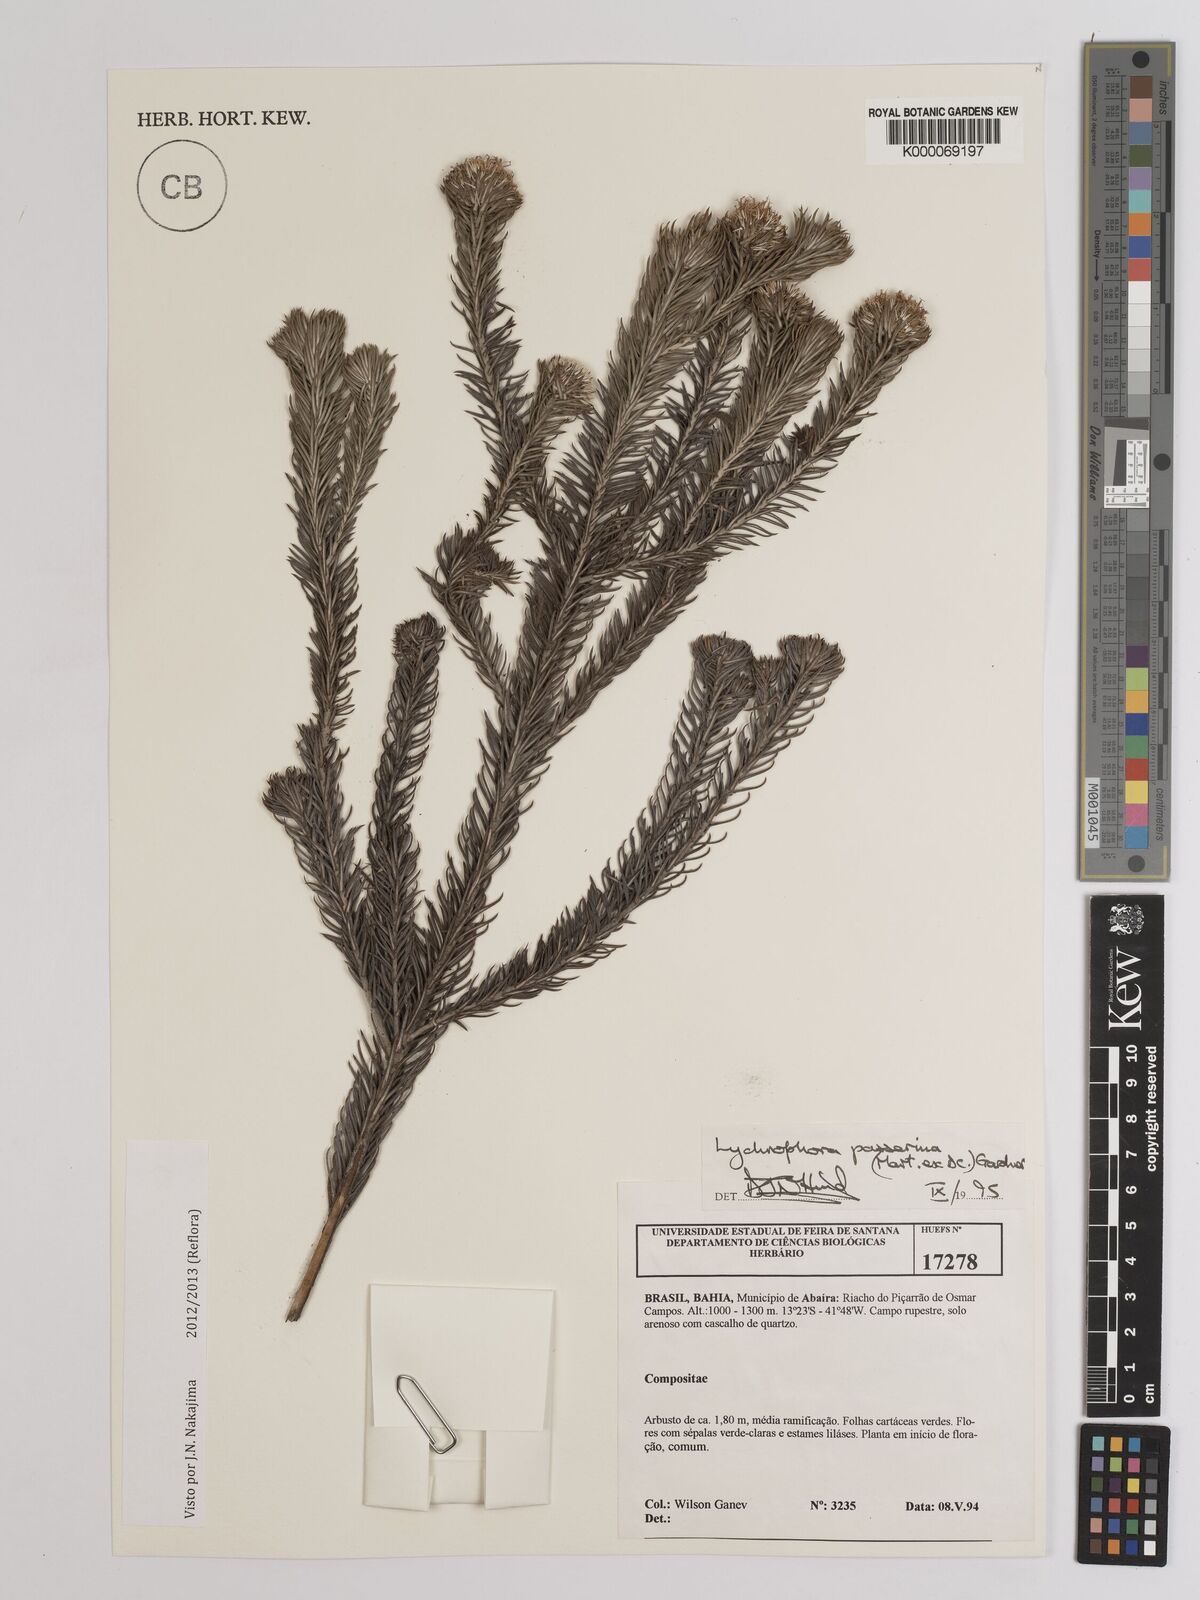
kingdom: Plantae
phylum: Tracheophyta
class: Magnoliopsida
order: Asterales
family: Asteraceae
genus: Lychnophora
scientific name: Lychnophora passerina
